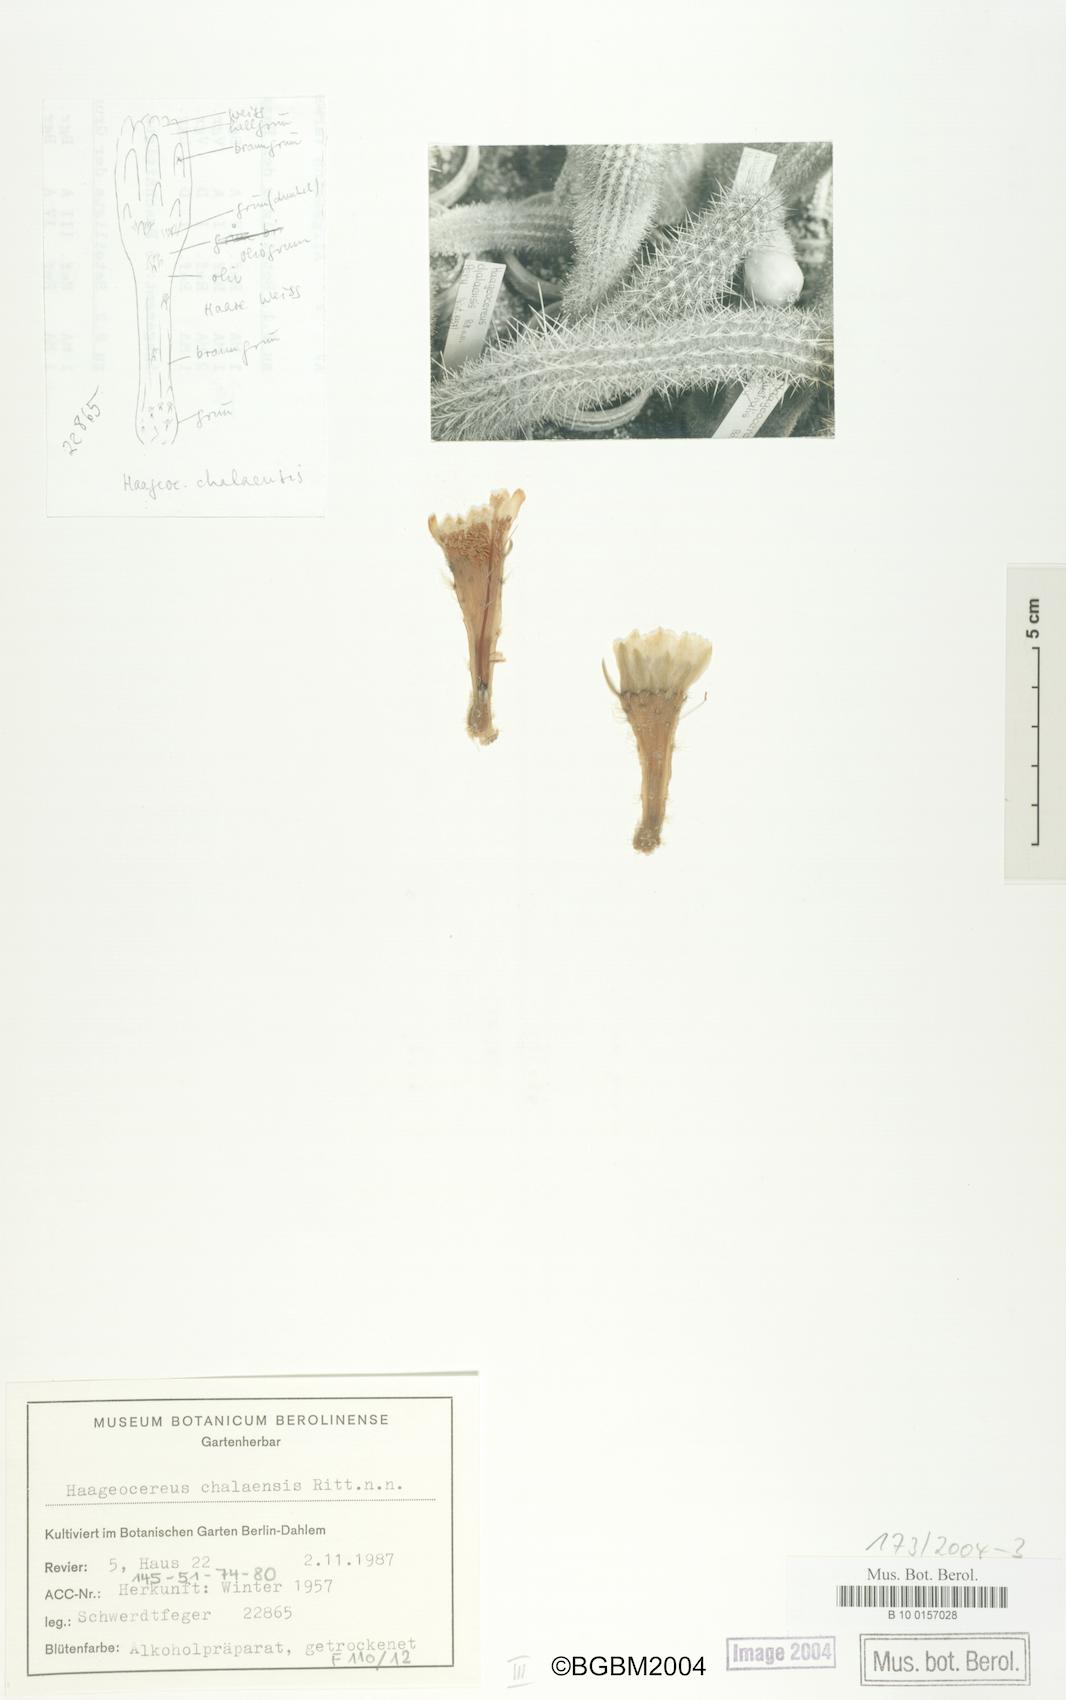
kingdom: Plantae
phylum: Tracheophyta
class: Magnoliopsida
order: Caryophyllales
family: Cactaceae
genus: Haageocereus
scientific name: Haageocereus decumbens
